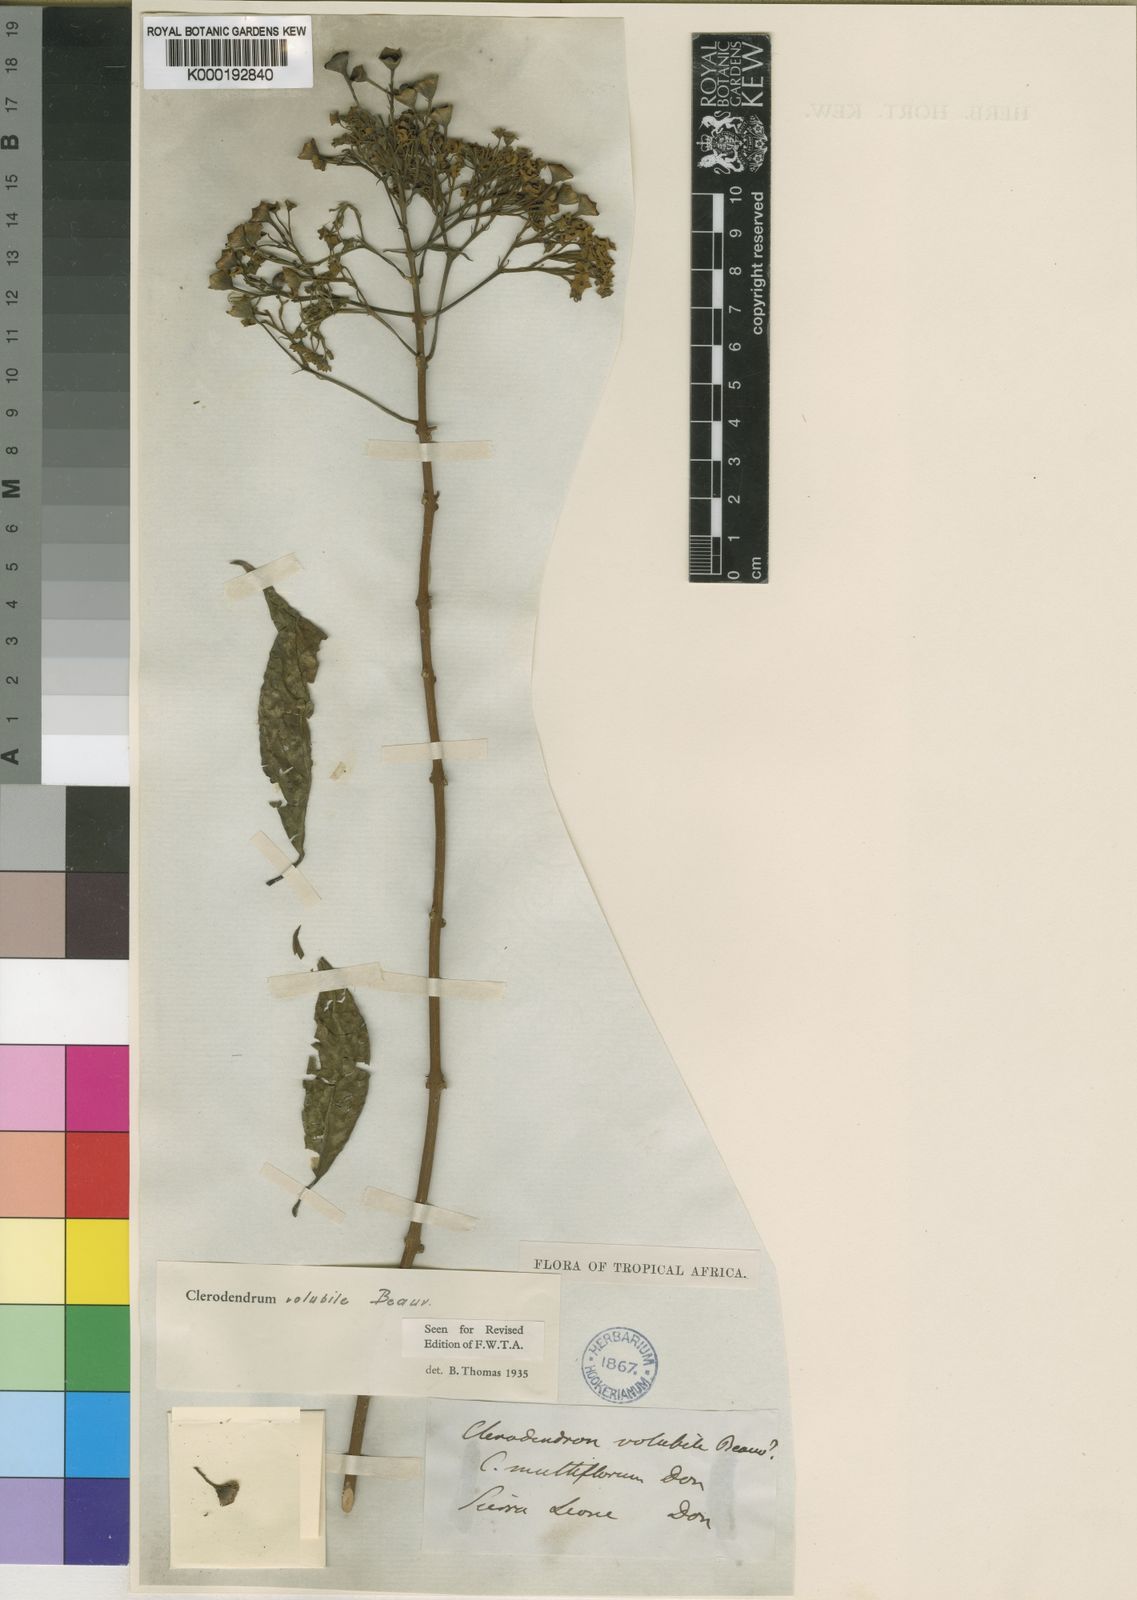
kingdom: Plantae
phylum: Tracheophyta
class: Magnoliopsida
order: Lamiales
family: Lamiaceae
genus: Clerodendrum
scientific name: Clerodendrum volubile
